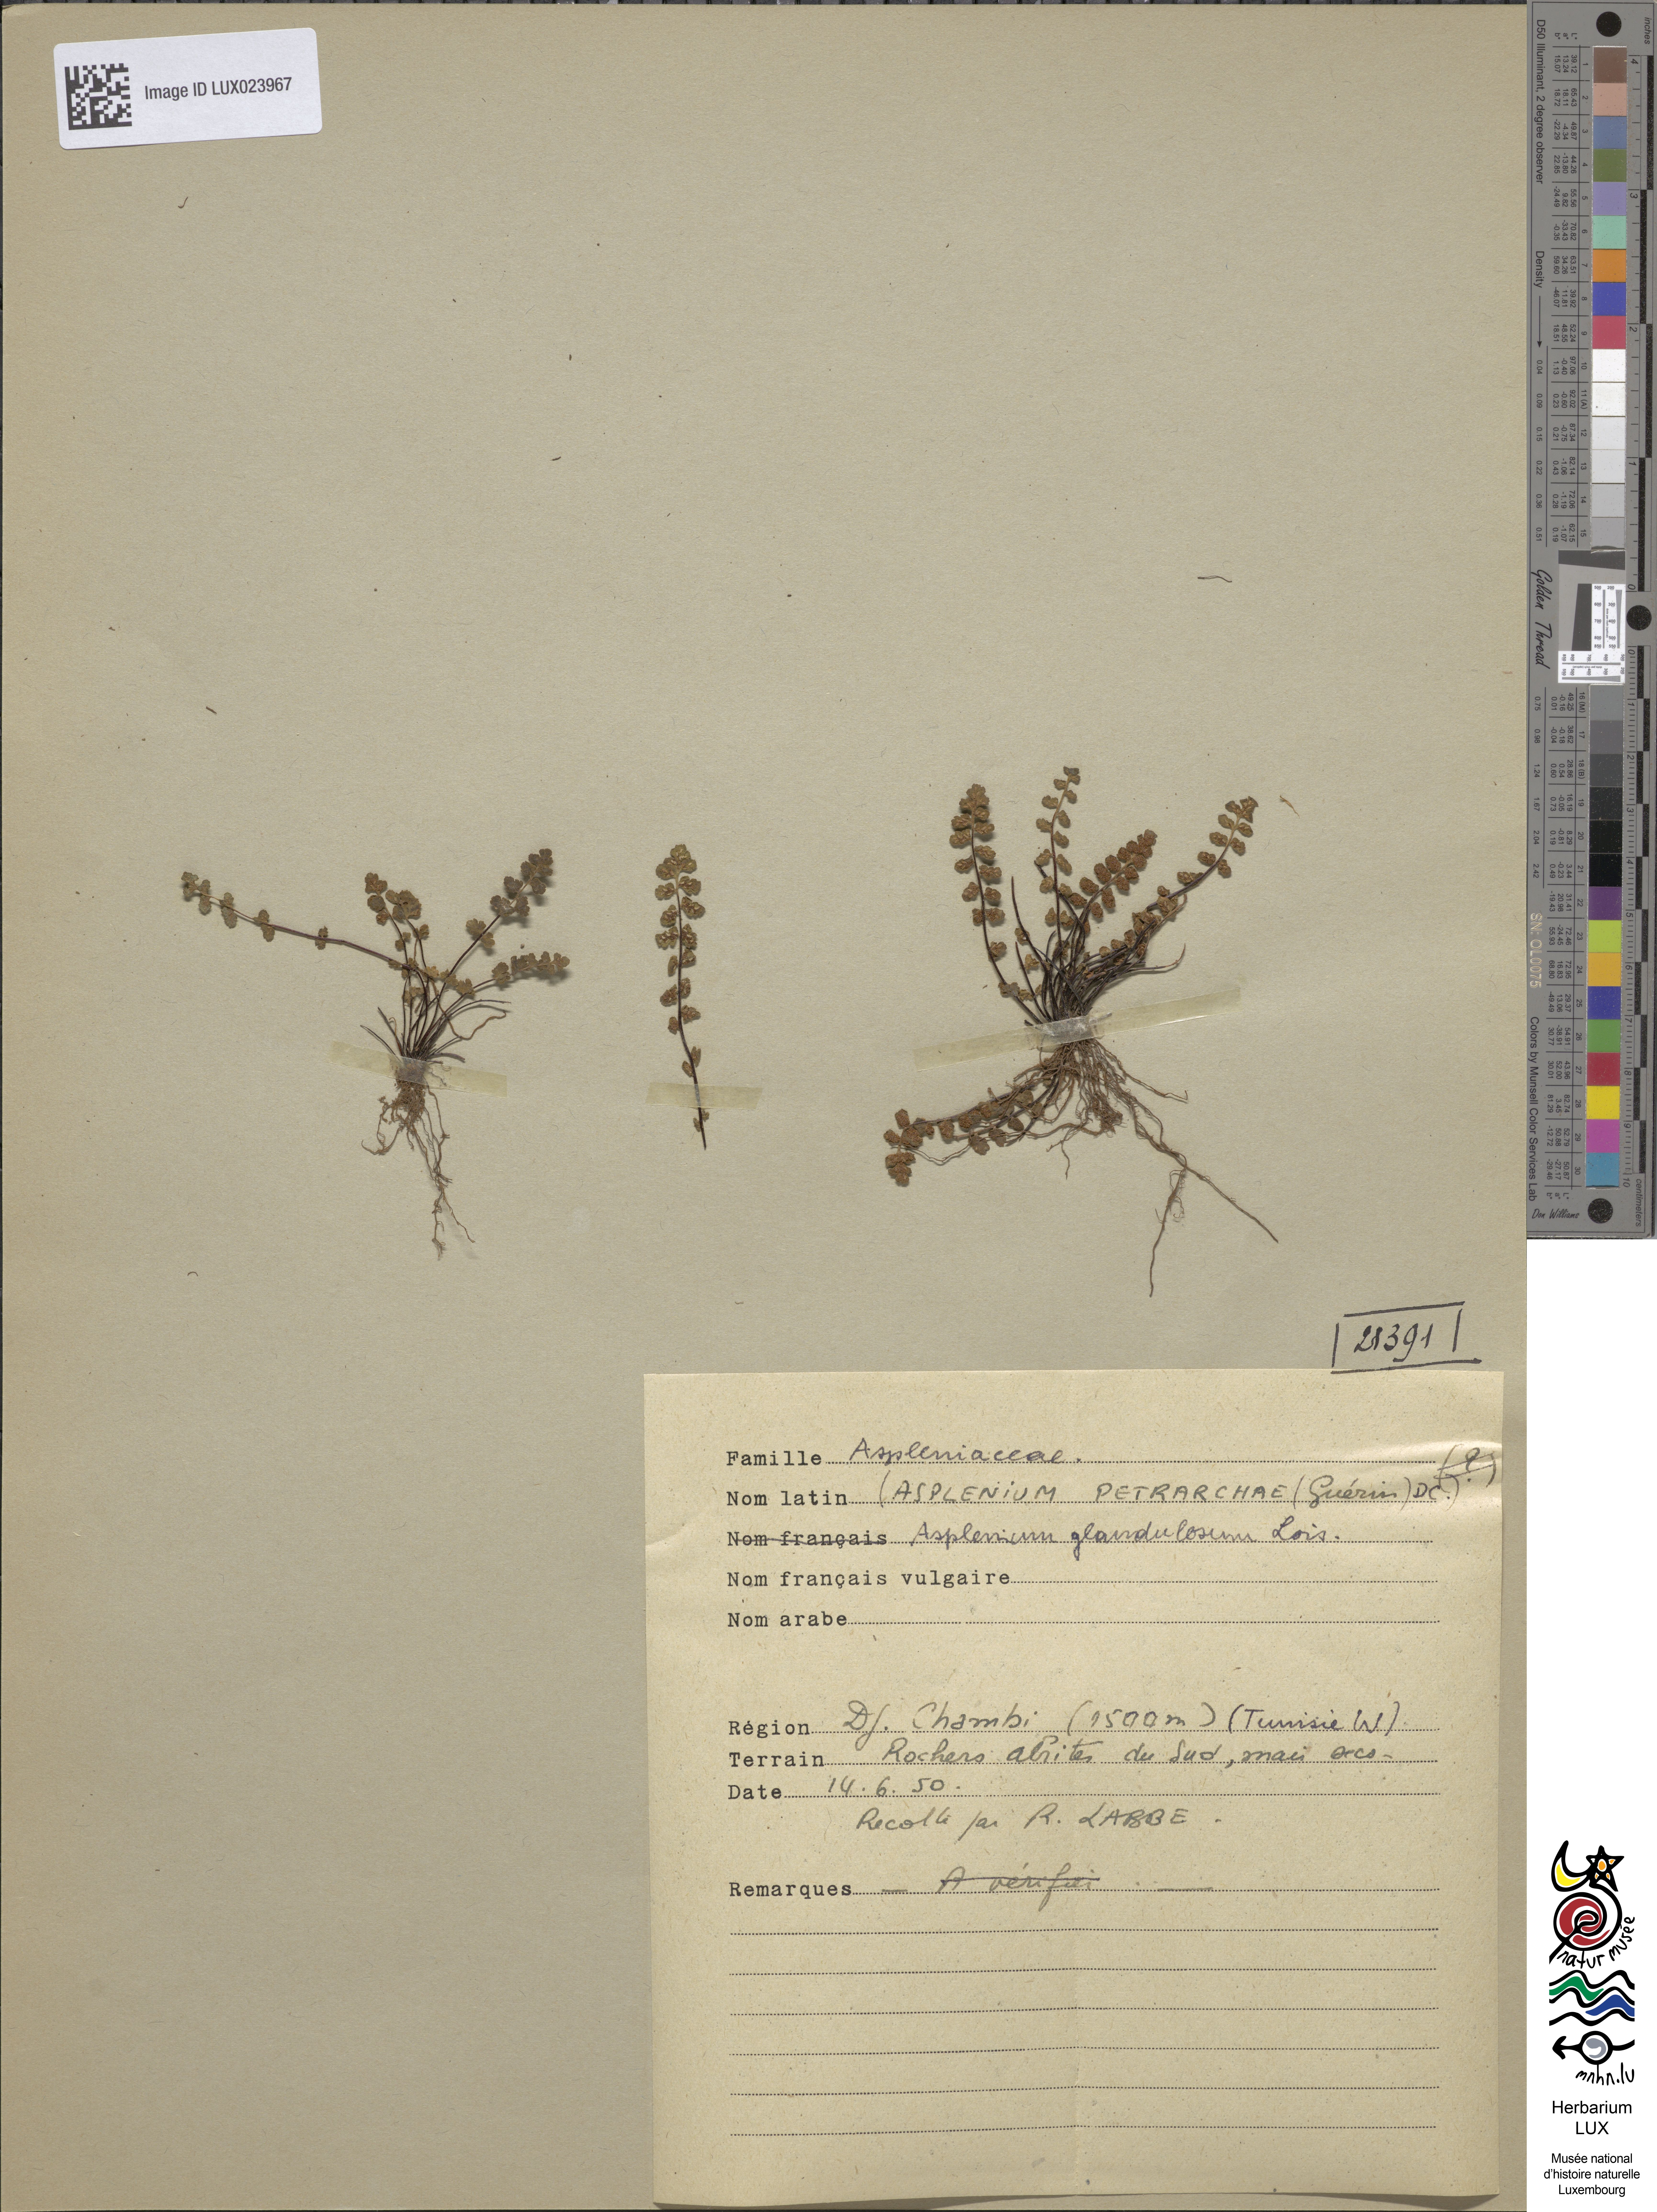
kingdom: Plantae
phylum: Tracheophyta
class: Polypodiopsida
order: Polypodiales
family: Aspleniaceae
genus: Asplenium
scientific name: Asplenium petrarchae
